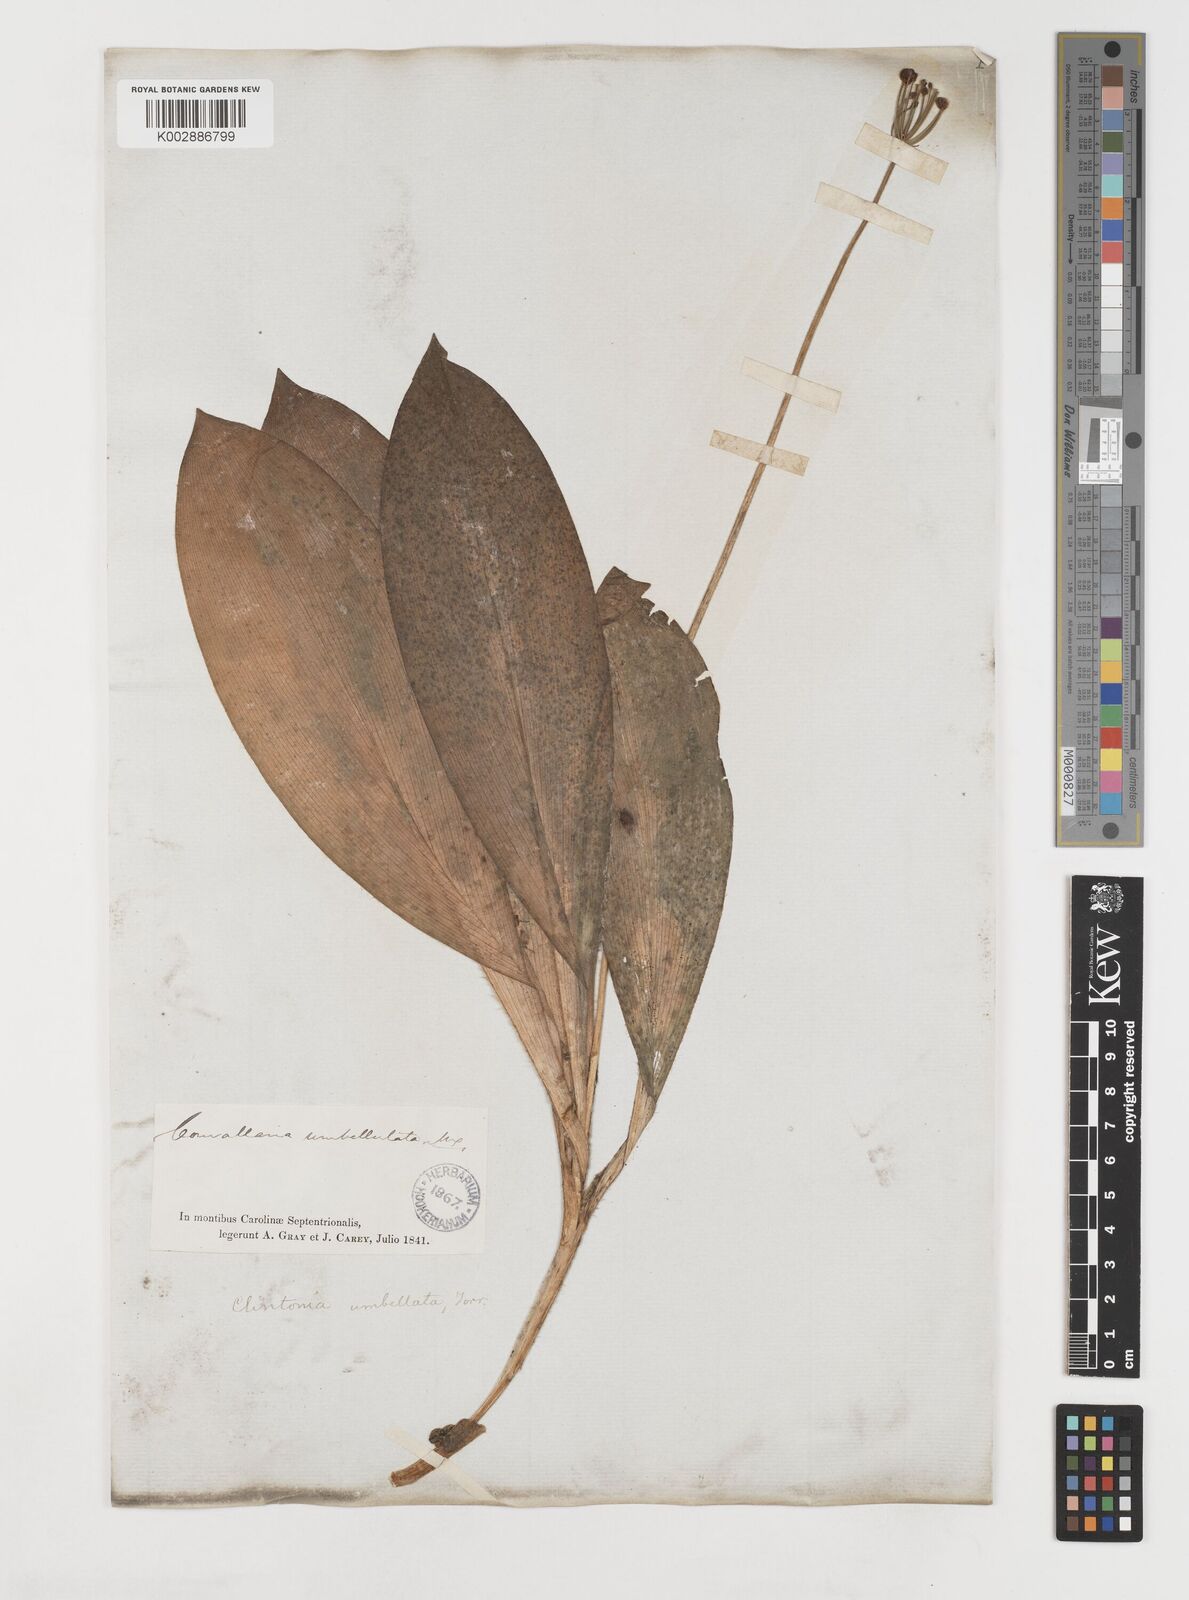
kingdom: Plantae
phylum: Tracheophyta
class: Liliopsida
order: Liliales
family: Liliaceae
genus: Clintonia
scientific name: Clintonia umbellulata
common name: Speckle wood-lily
